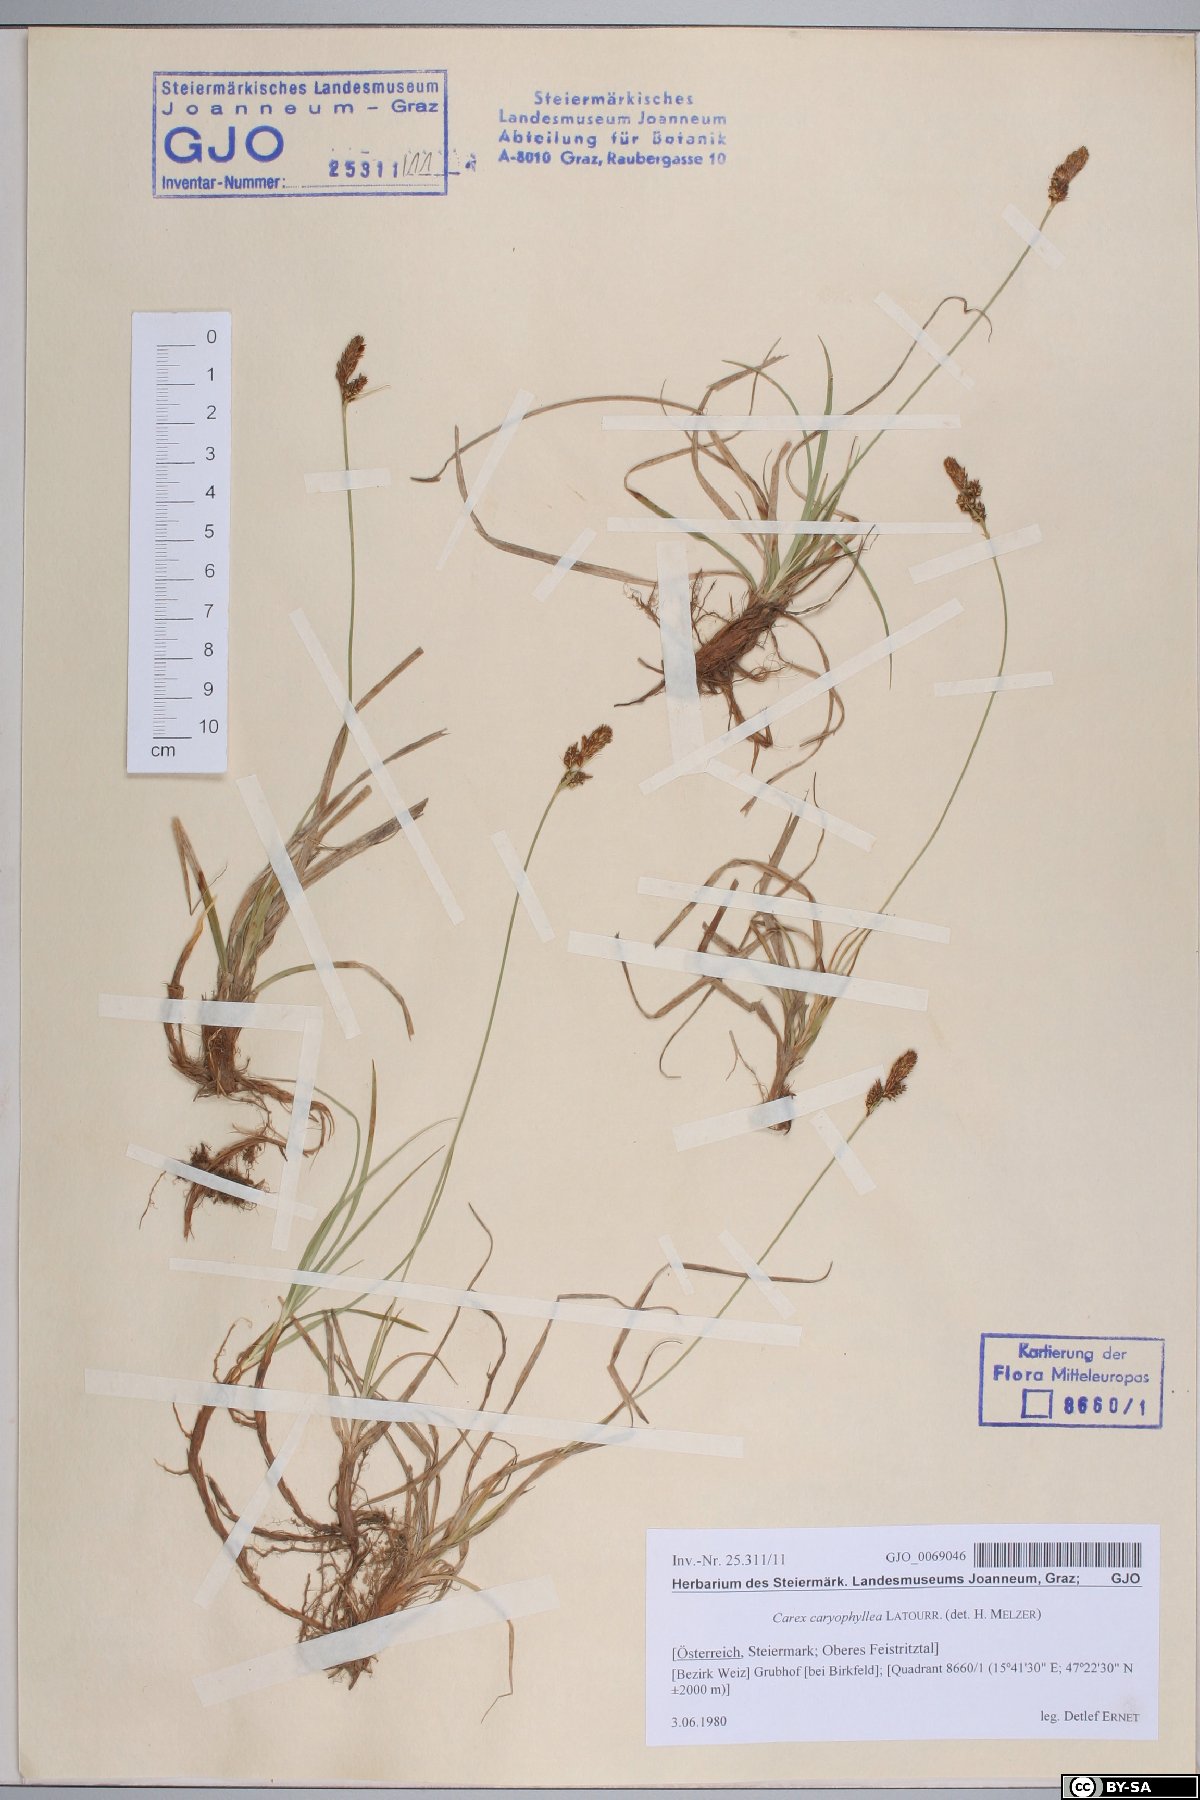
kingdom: Plantae
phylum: Tracheophyta
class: Liliopsida
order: Poales
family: Cyperaceae
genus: Carex
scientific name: Carex caryophyllea
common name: Spring sedge
